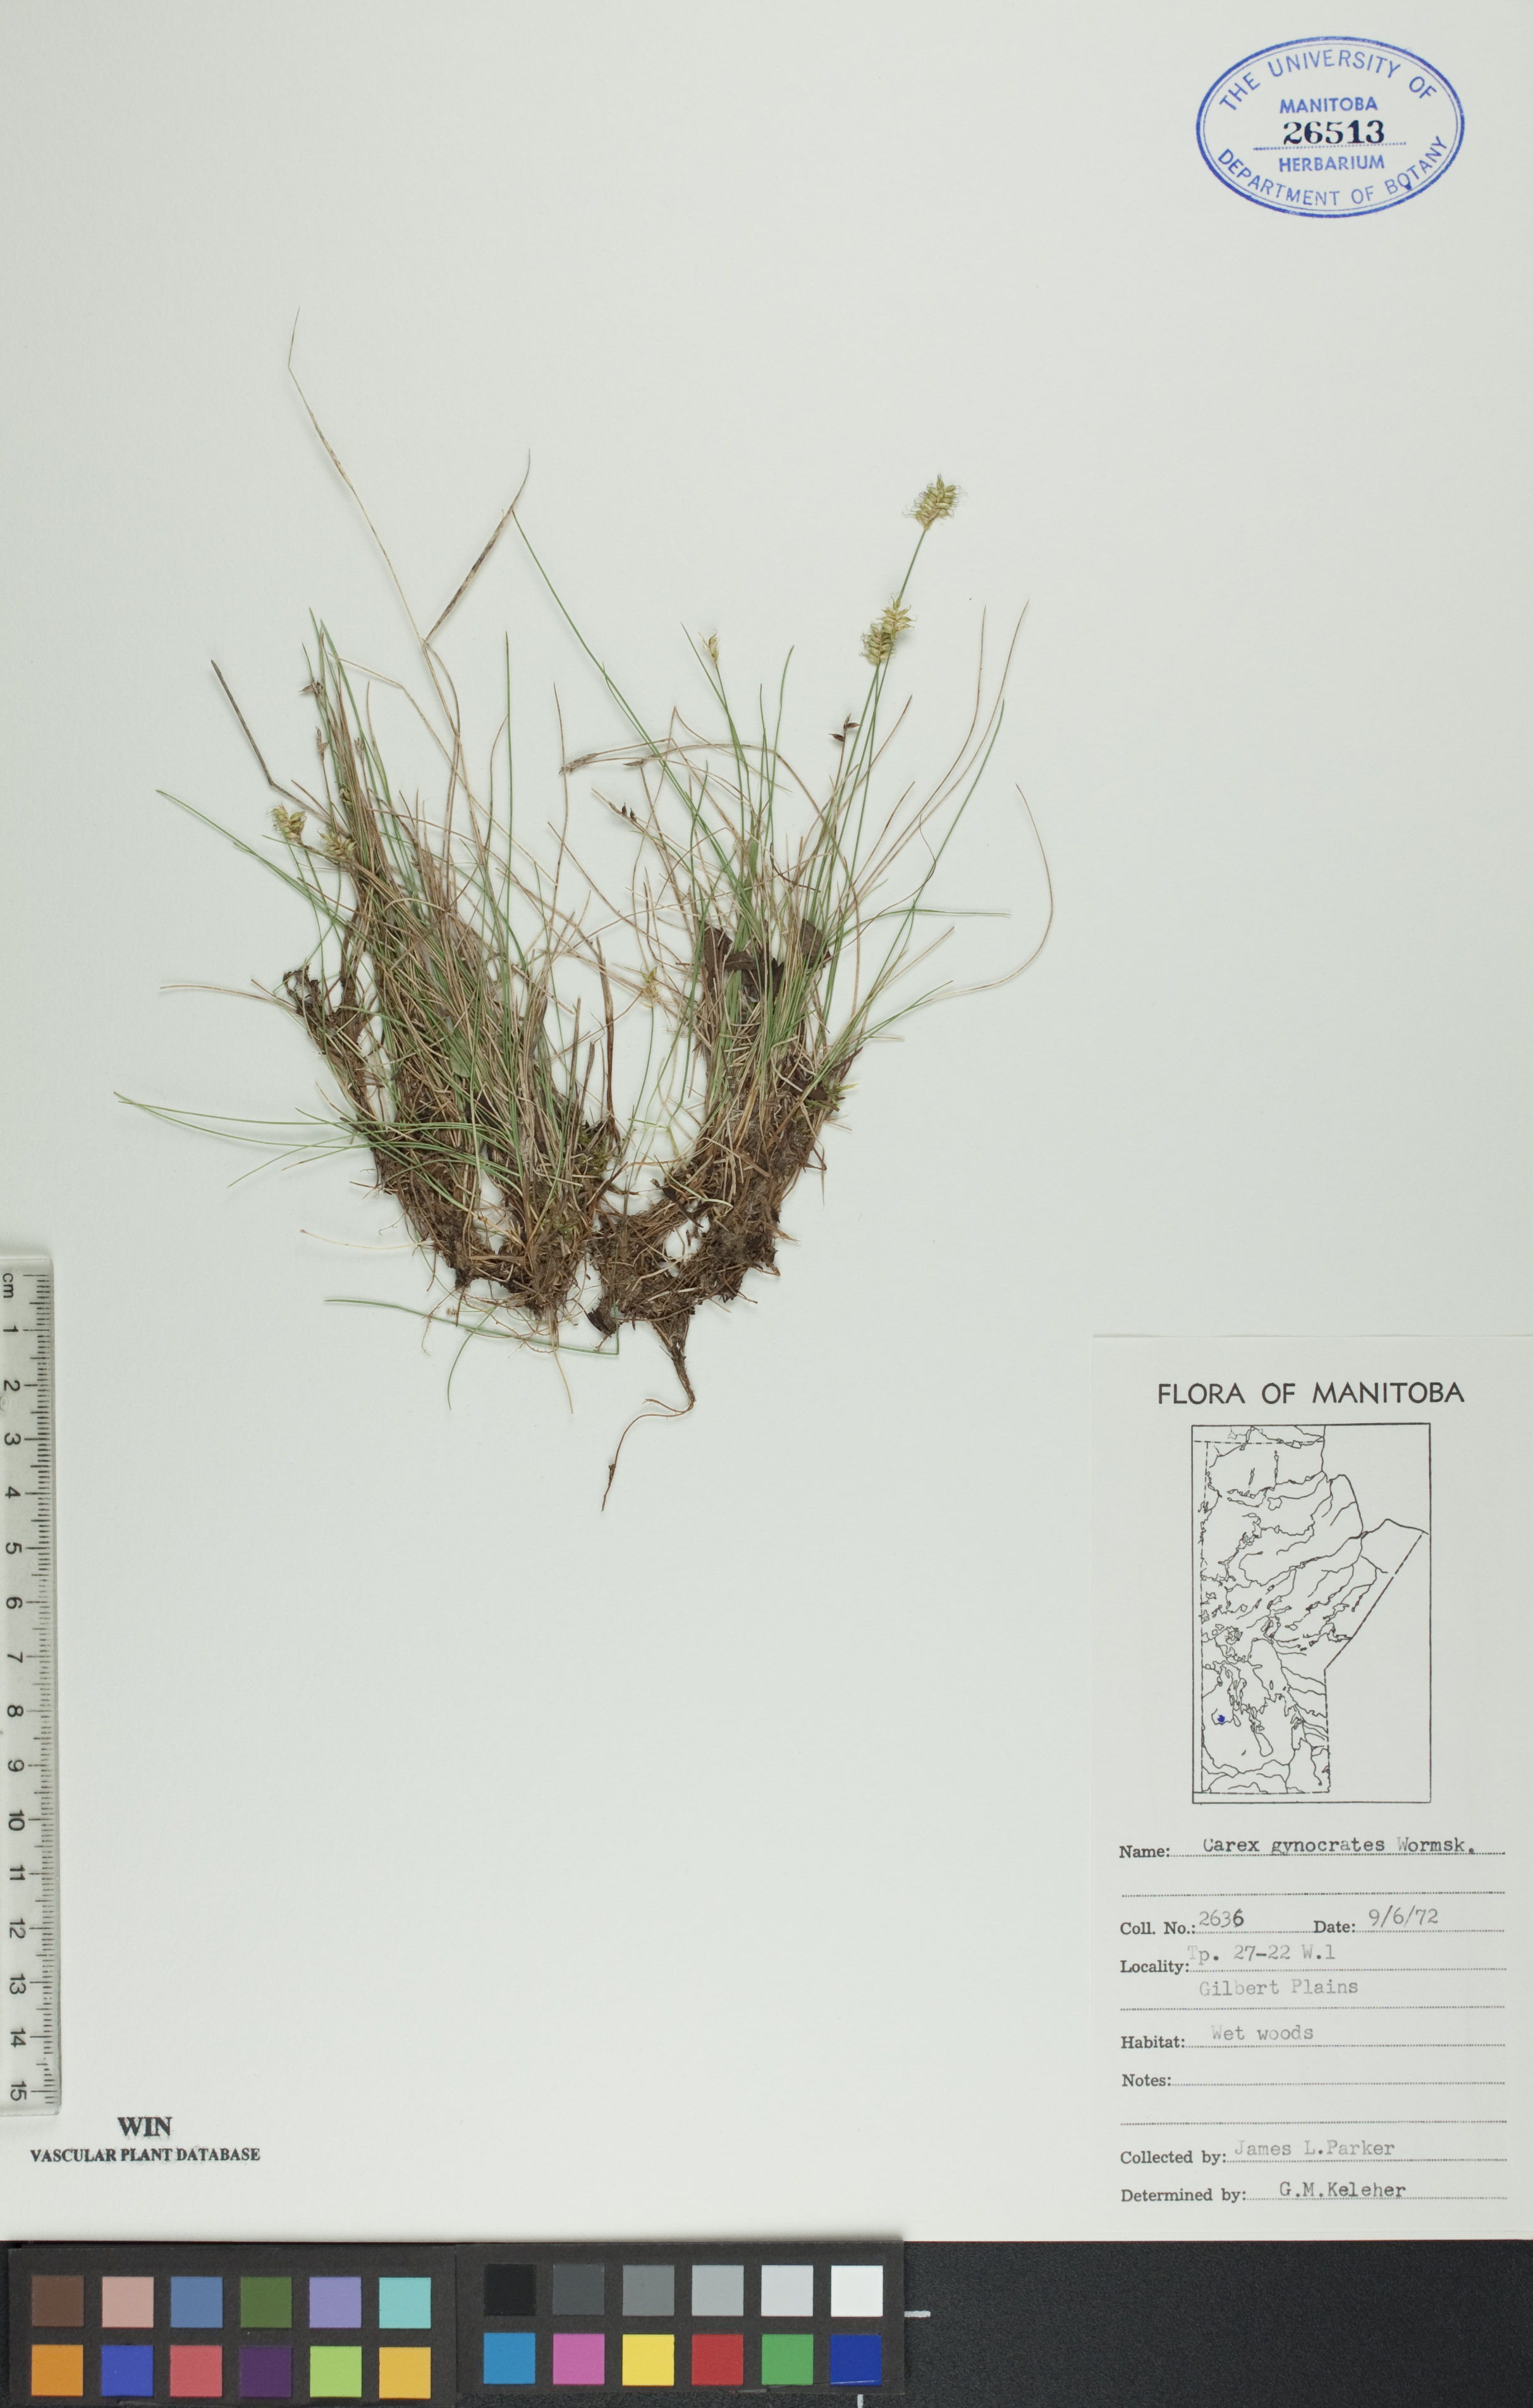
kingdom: Plantae
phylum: Tracheophyta
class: Liliopsida
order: Poales
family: Cyperaceae
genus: Carex
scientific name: Carex nardina
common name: Nard sedge
